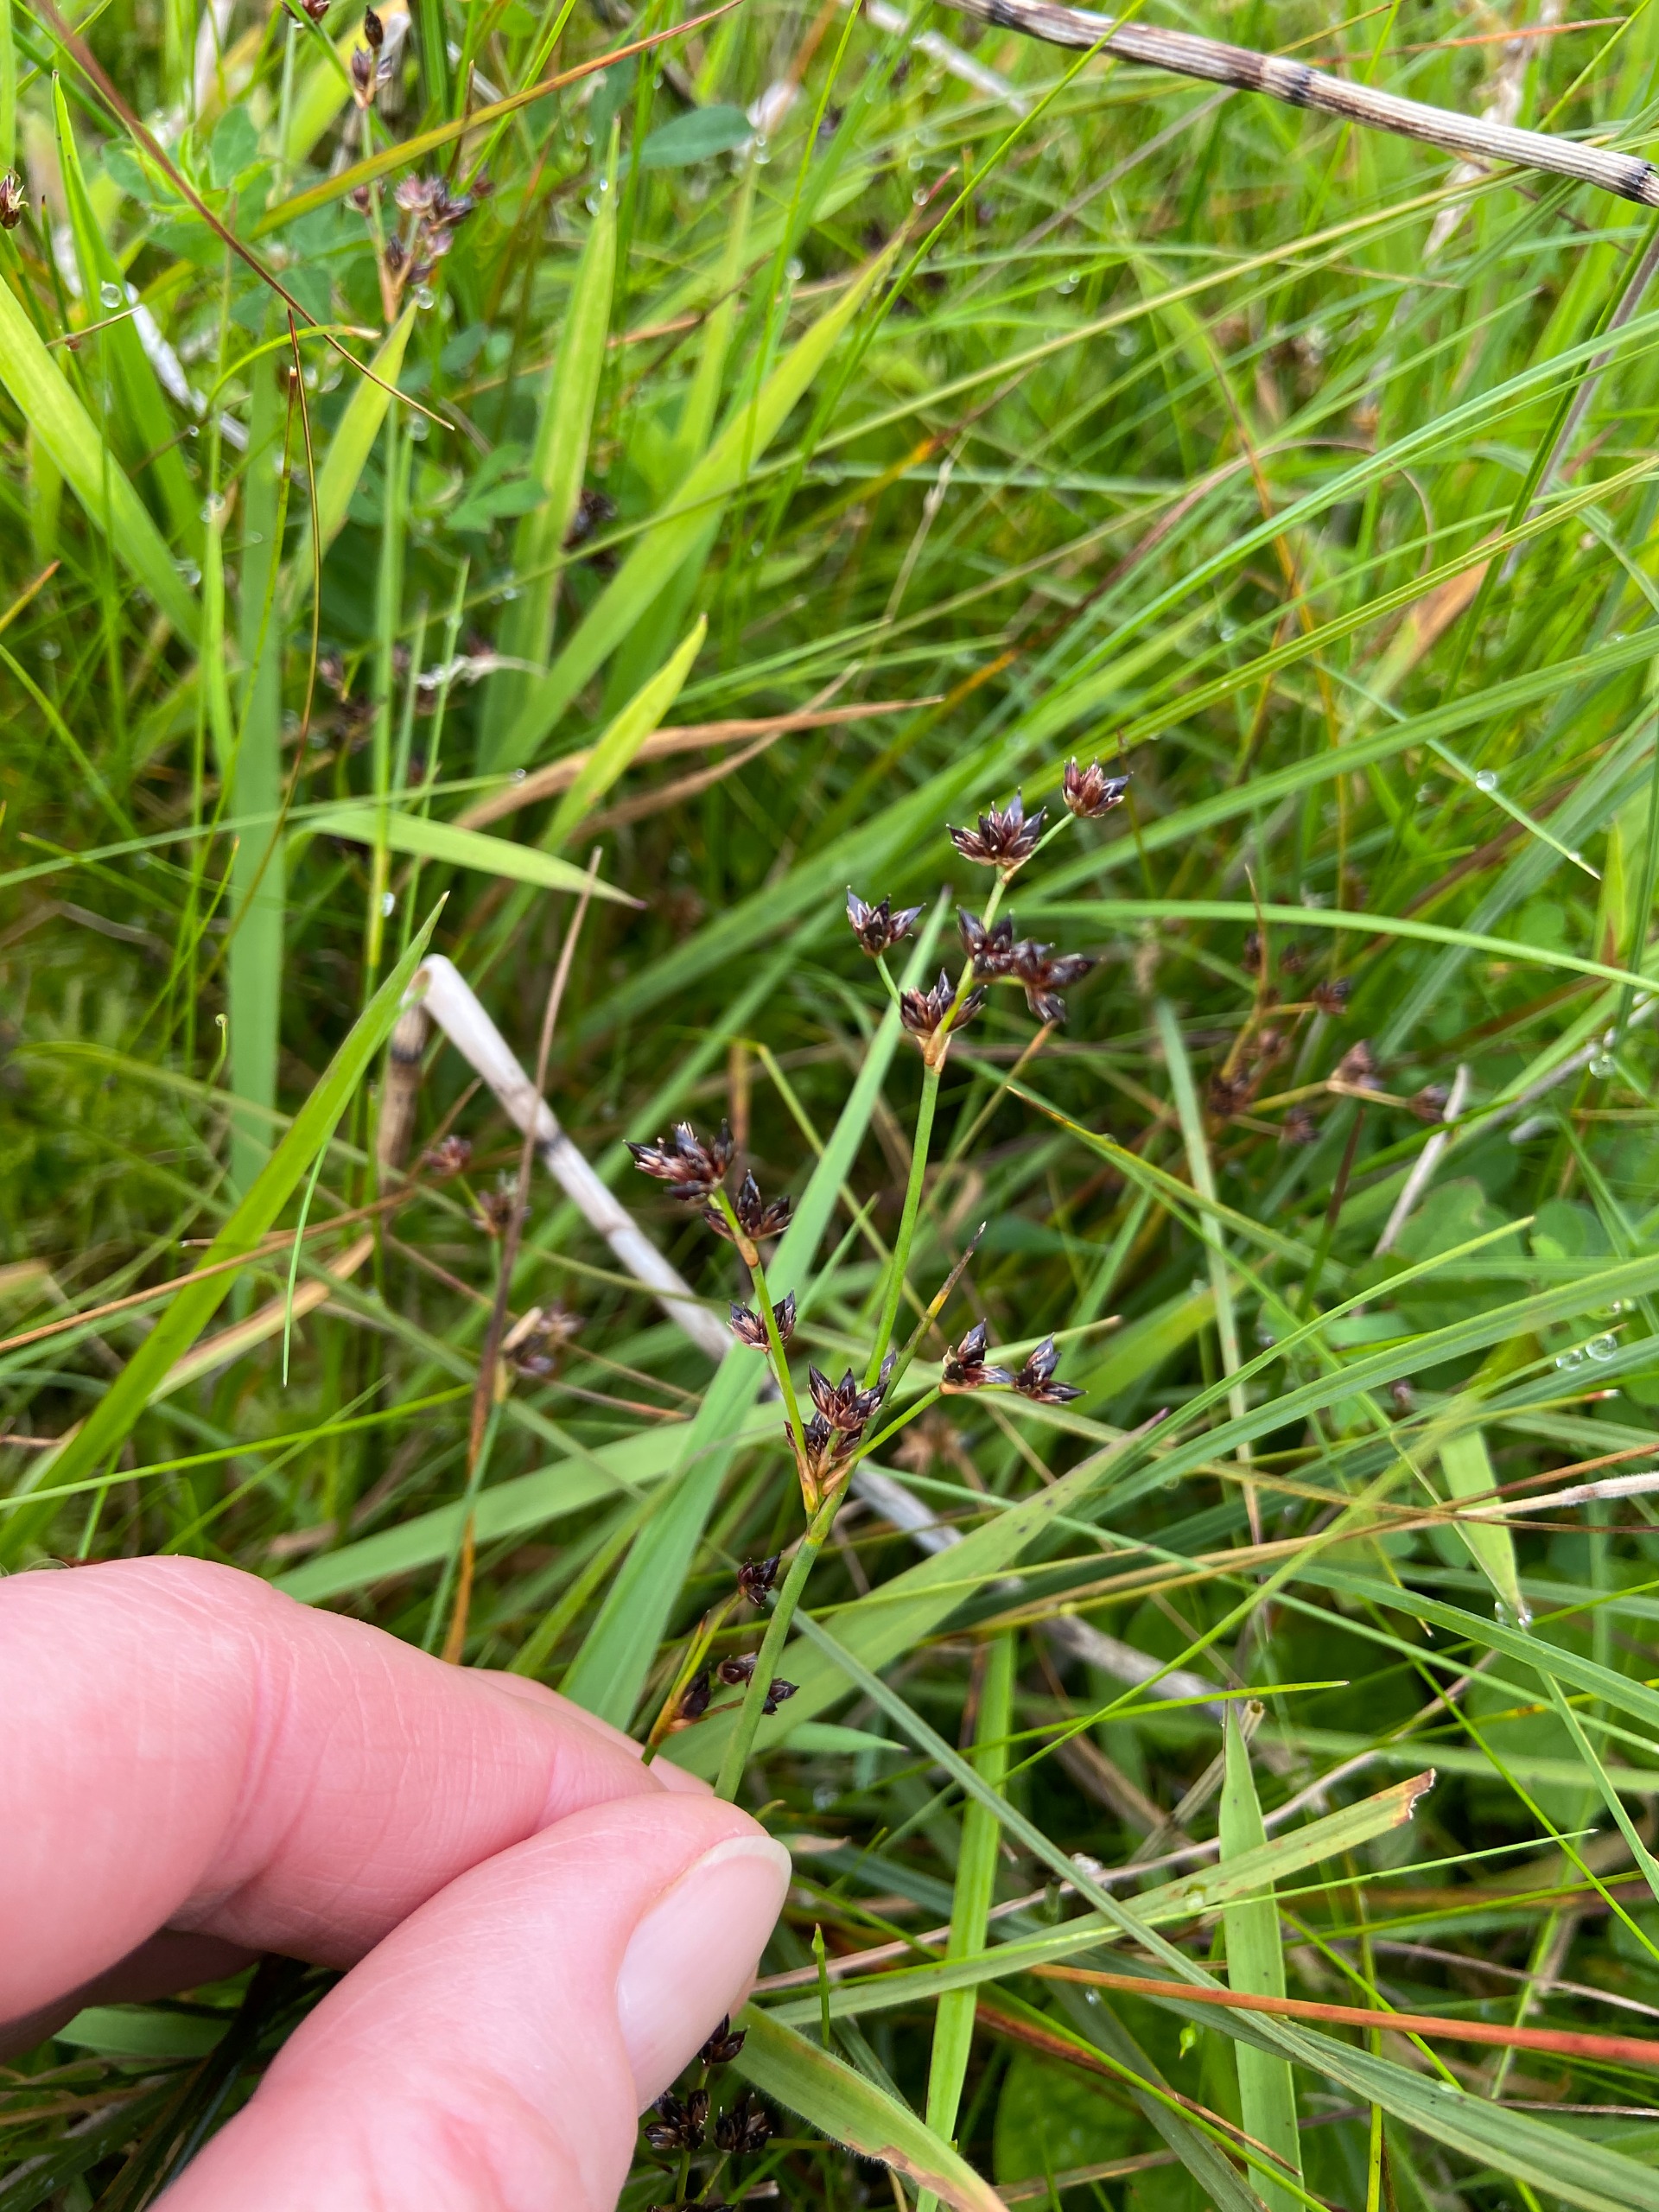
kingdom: Plantae
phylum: Tracheophyta
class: Liliopsida
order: Poales
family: Juncaceae
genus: Juncus
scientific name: Juncus articulatus
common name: Glanskapslet siv
